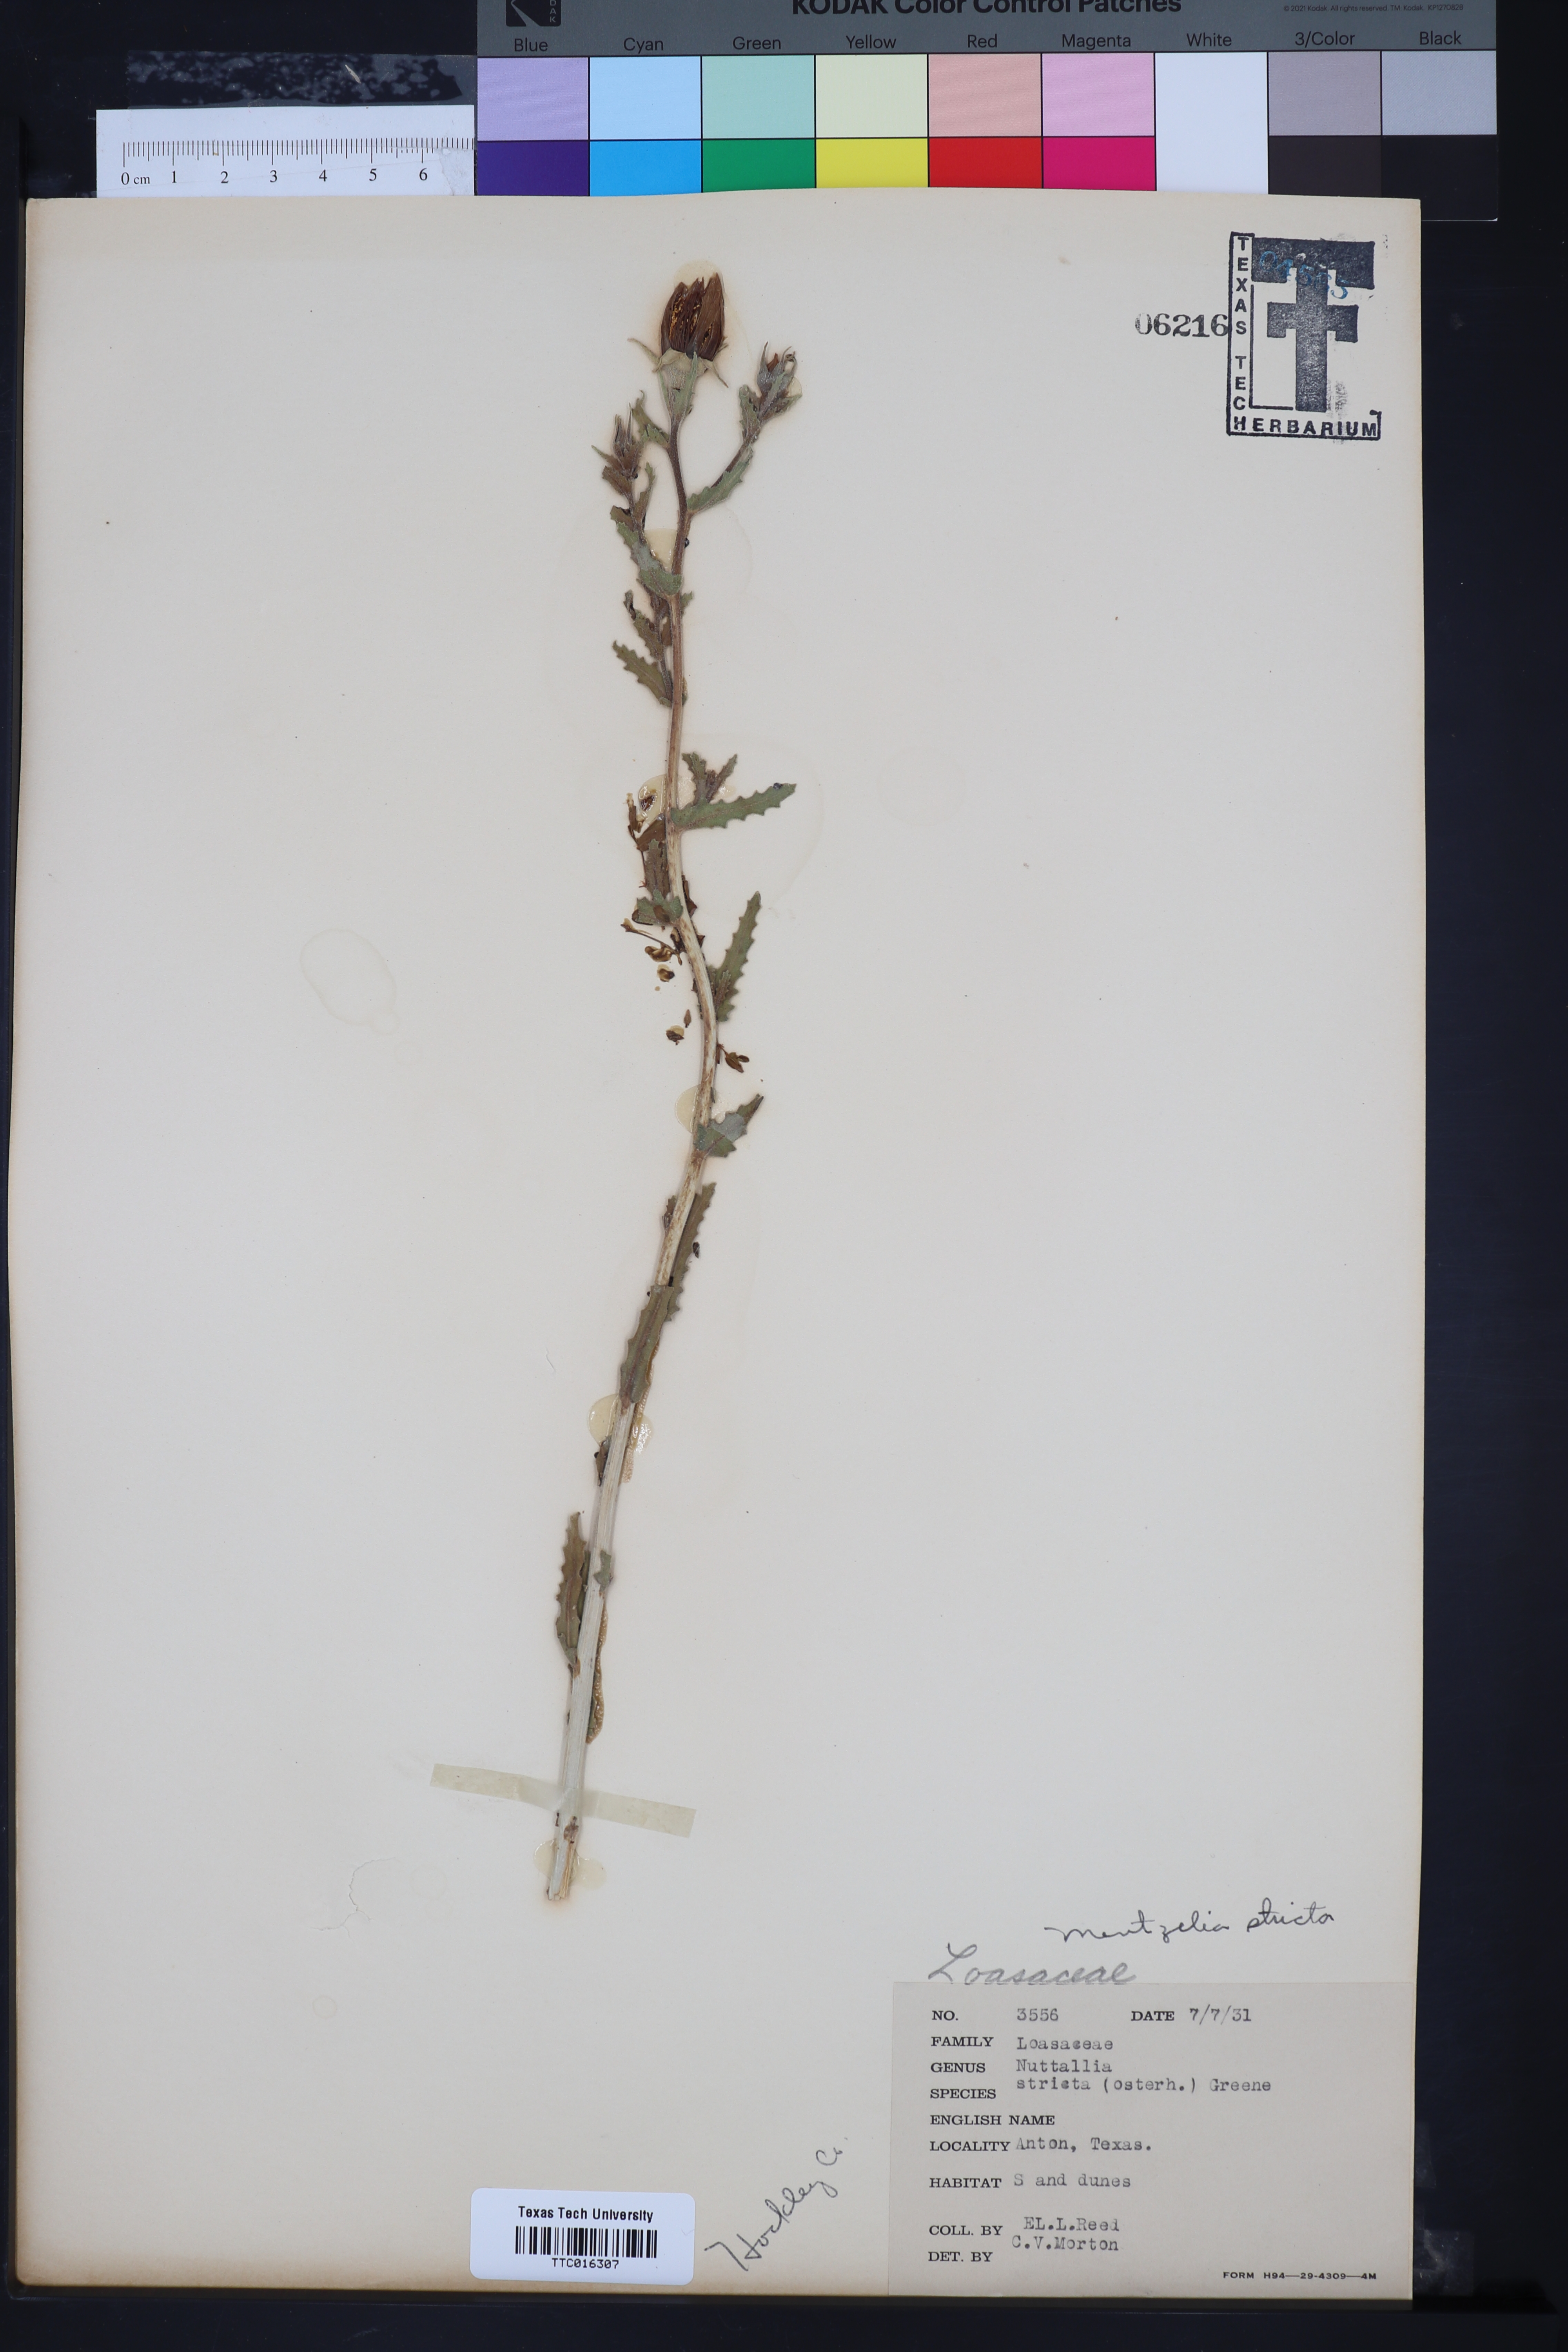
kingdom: Plantae
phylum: Tracheophyta
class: Magnoliopsida
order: Cornales
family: Loasaceae
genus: Mentzelia
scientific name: Mentzelia nuda
